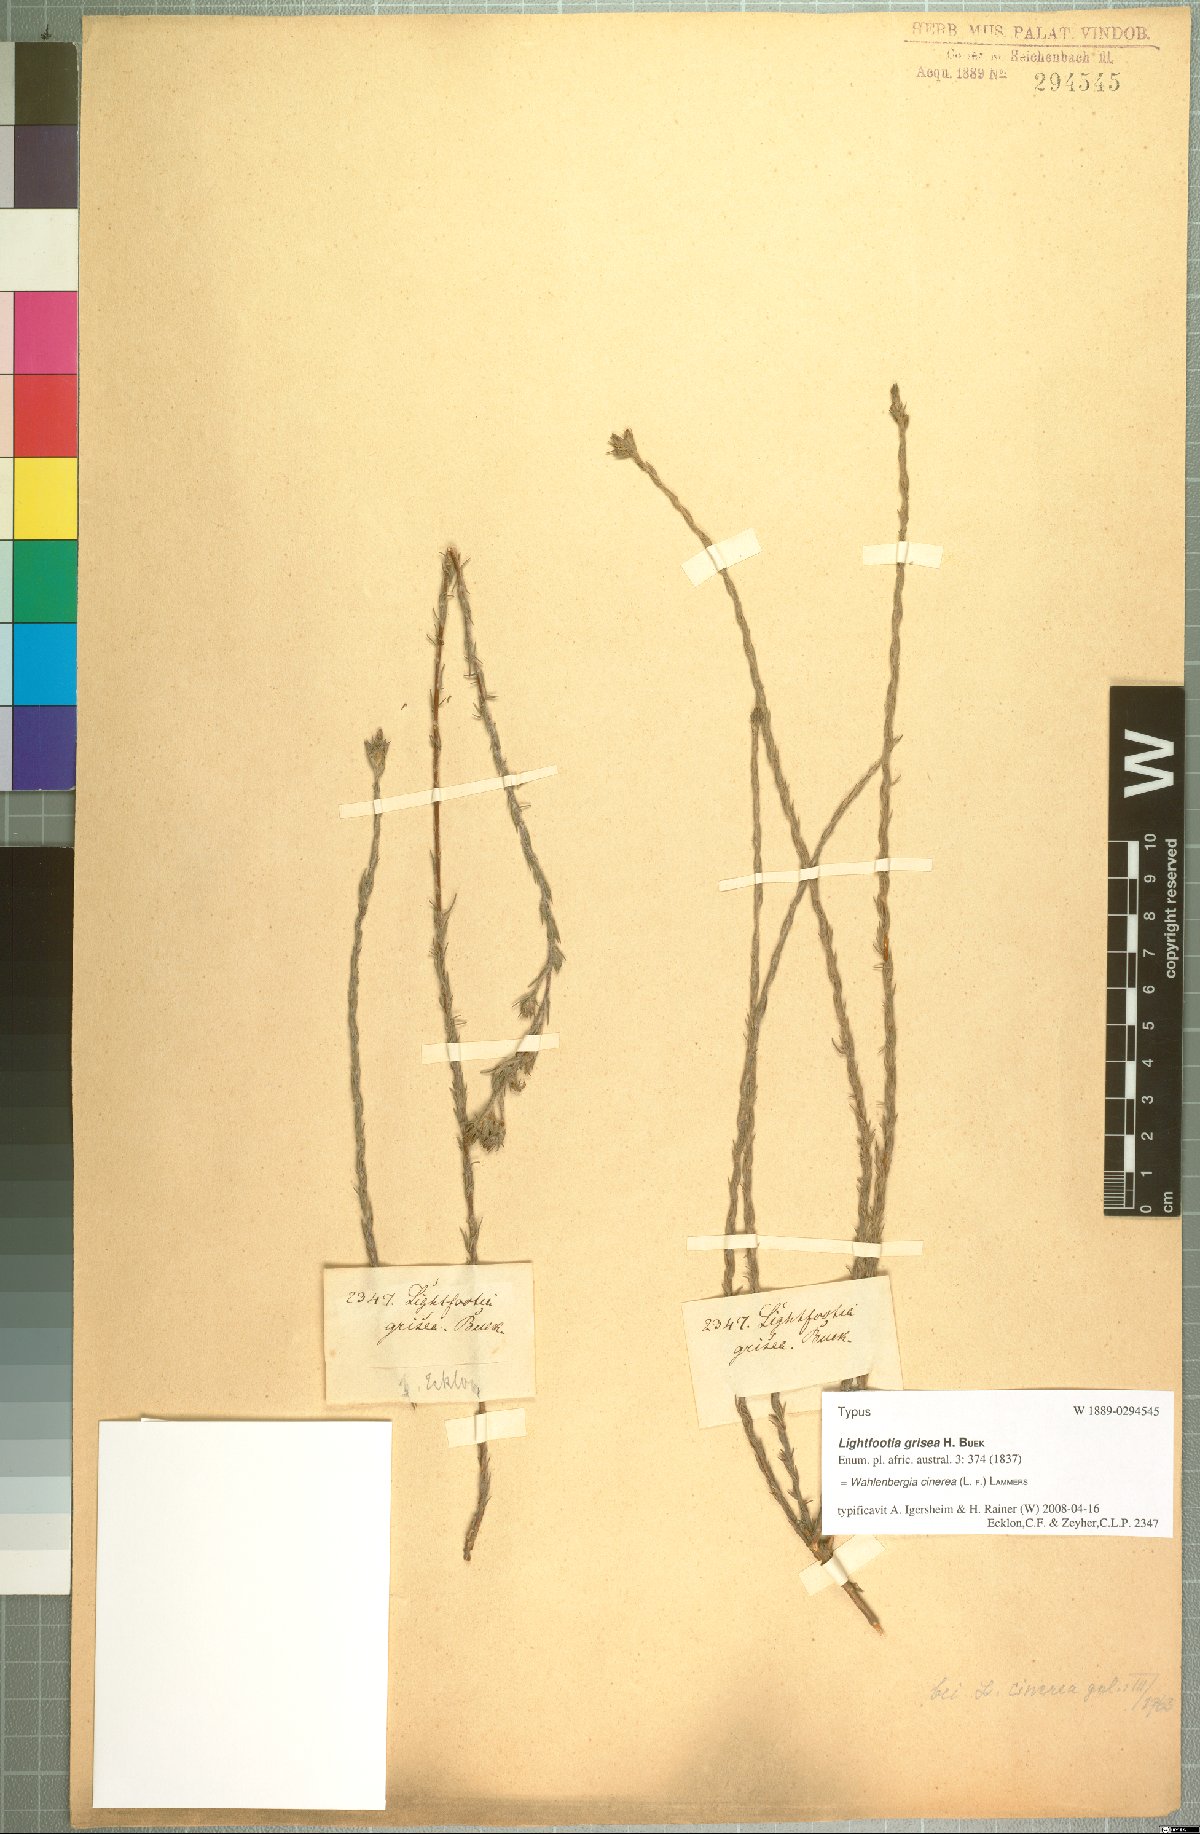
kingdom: Plantae
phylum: Tracheophyta
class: Magnoliopsida
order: Asterales
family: Campanulaceae
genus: Wahlenbergia
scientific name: Wahlenbergia cinerea
